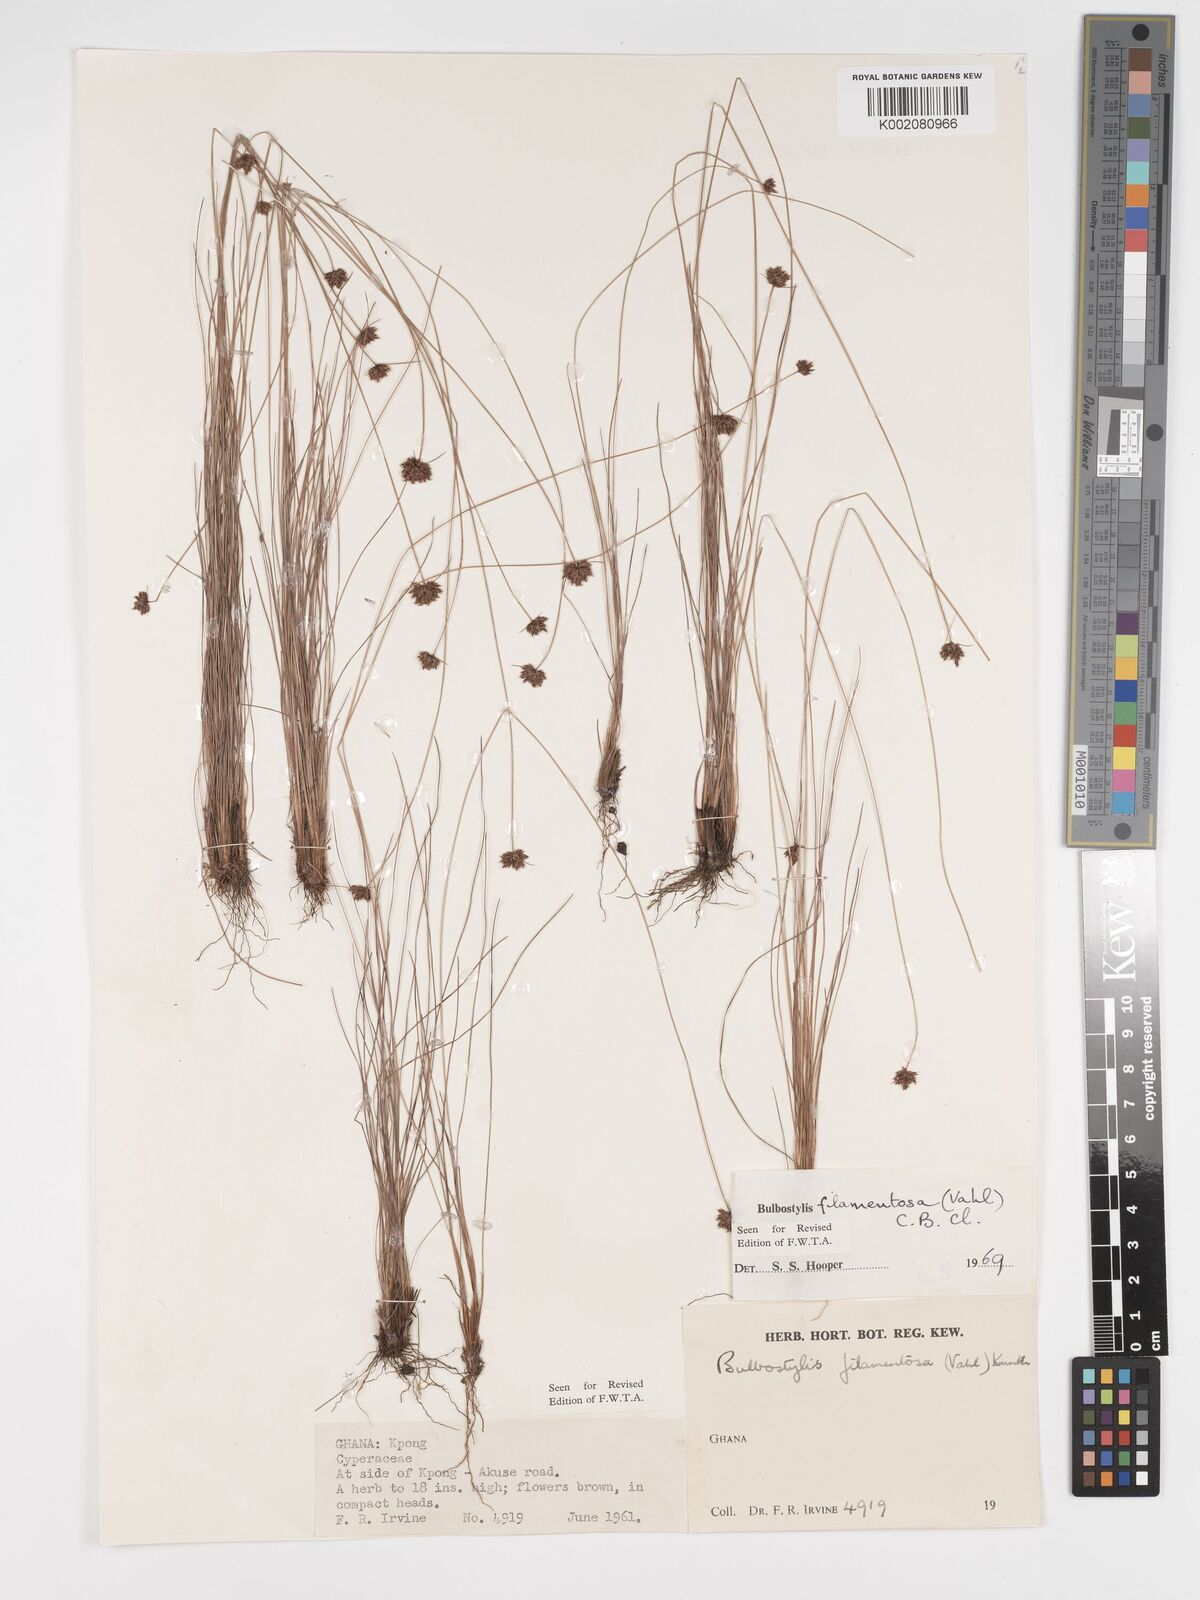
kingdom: Plantae
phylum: Tracheophyta
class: Liliopsida
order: Poales
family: Cyperaceae
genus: Bulbostylis
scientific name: Bulbostylis filamentosa
